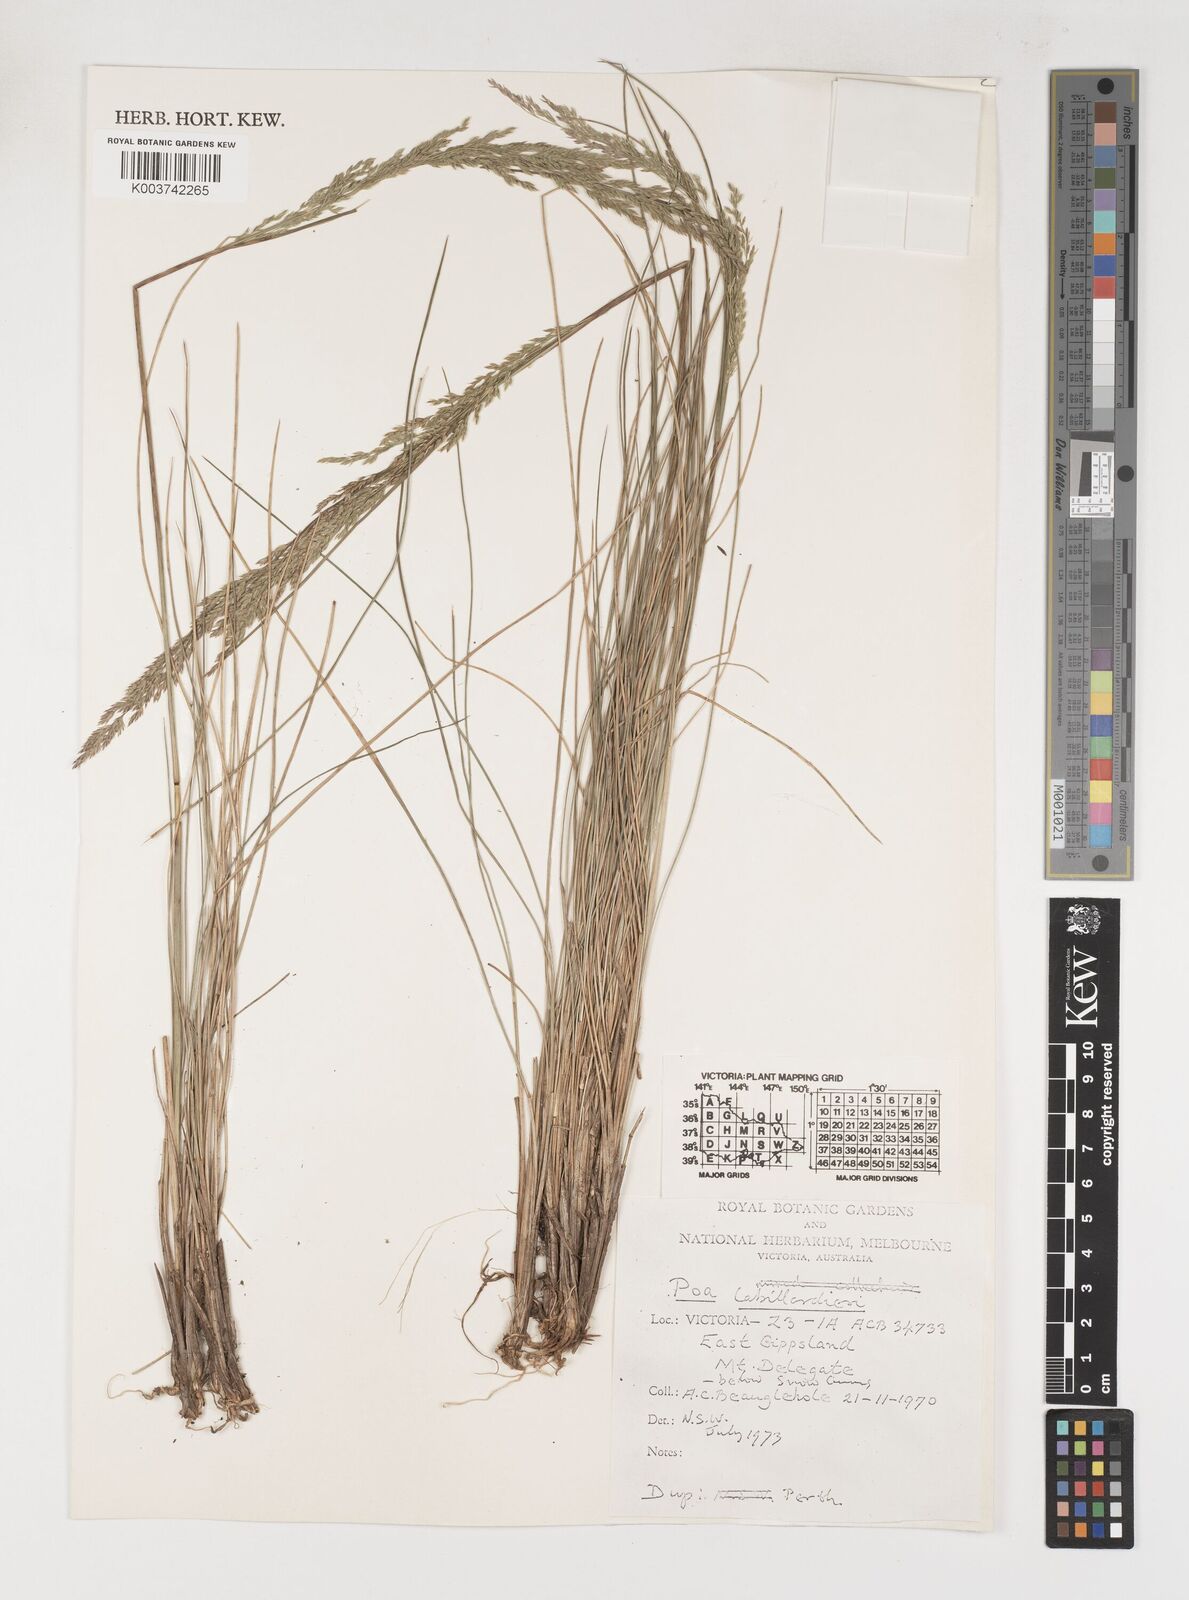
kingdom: Plantae
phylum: Tracheophyta
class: Liliopsida
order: Poales
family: Poaceae
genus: Poa
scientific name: Poa labillardierei
